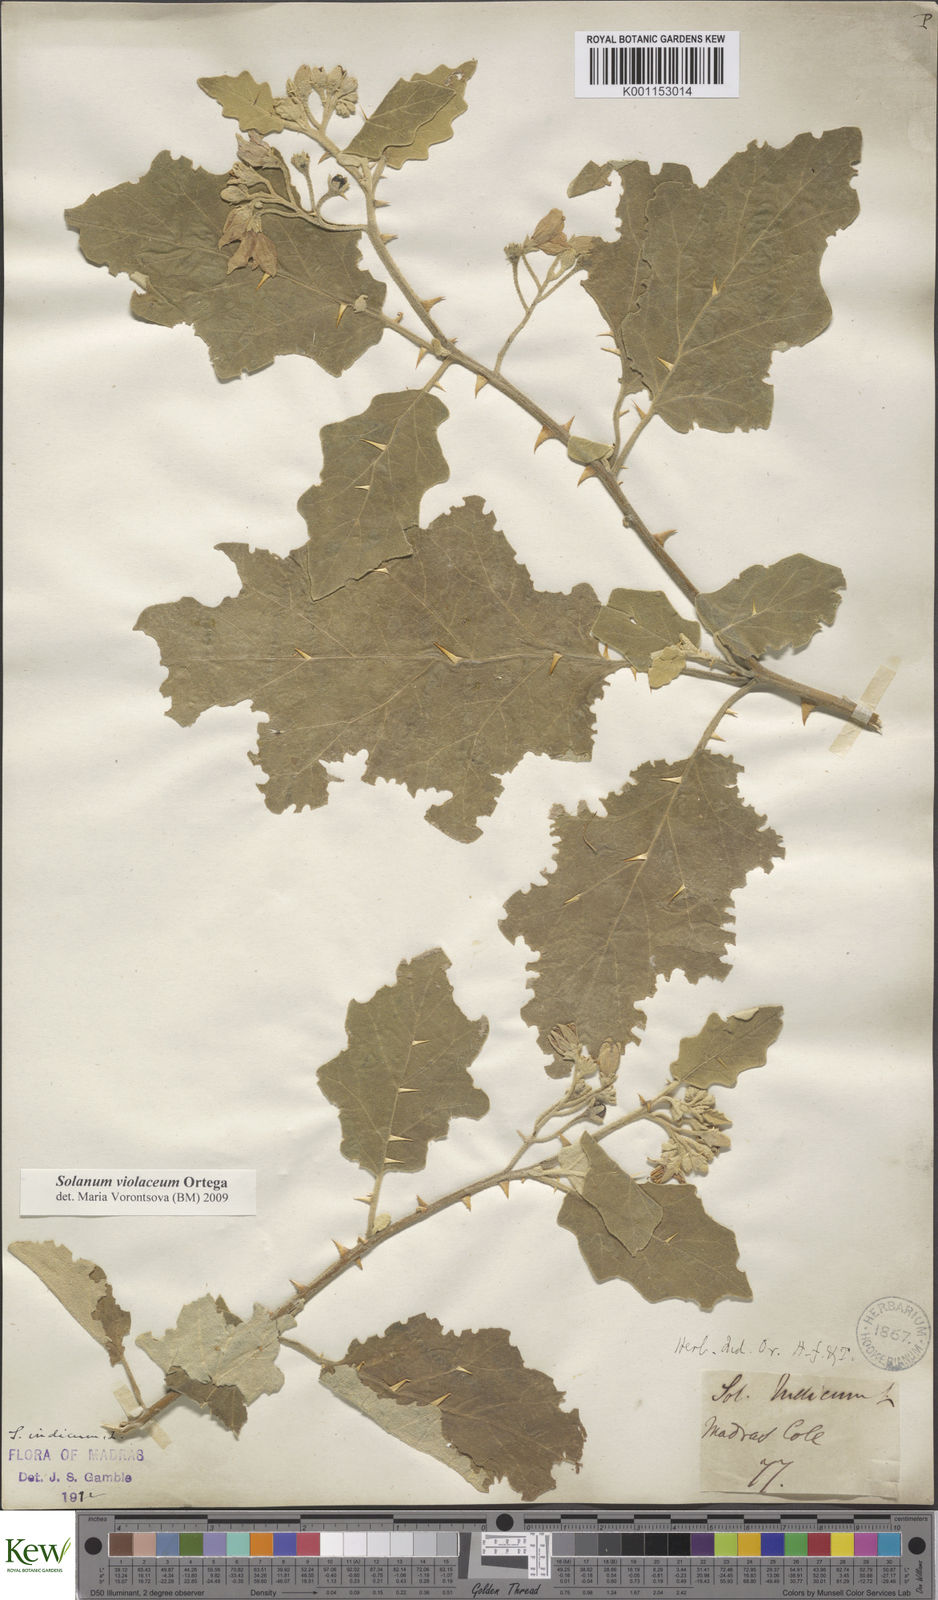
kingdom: Plantae
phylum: Tracheophyta
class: Magnoliopsida
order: Solanales
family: Solanaceae
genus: Solanum
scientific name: Solanum violaceum
